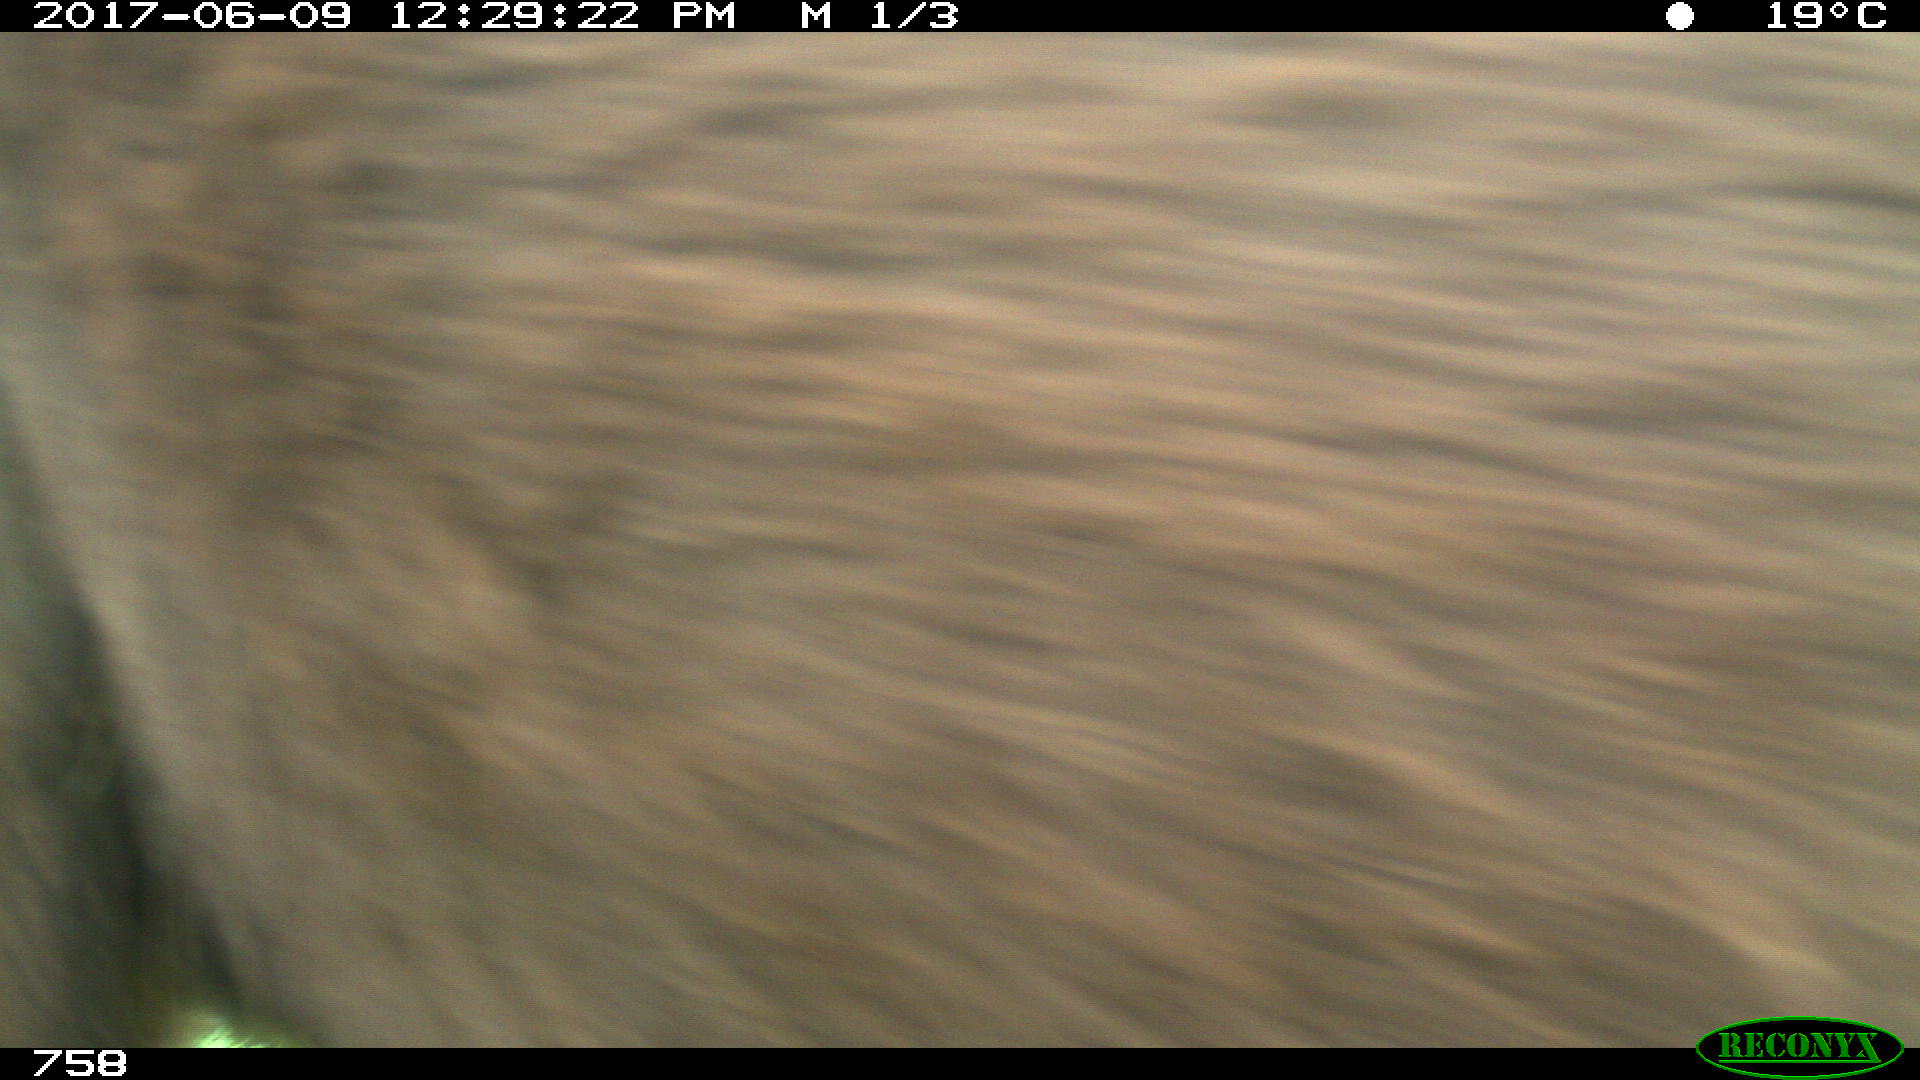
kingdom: Animalia
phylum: Chordata
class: Mammalia
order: Perissodactyla
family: Equidae
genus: Equus
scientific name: Equus caballus
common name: Horse
